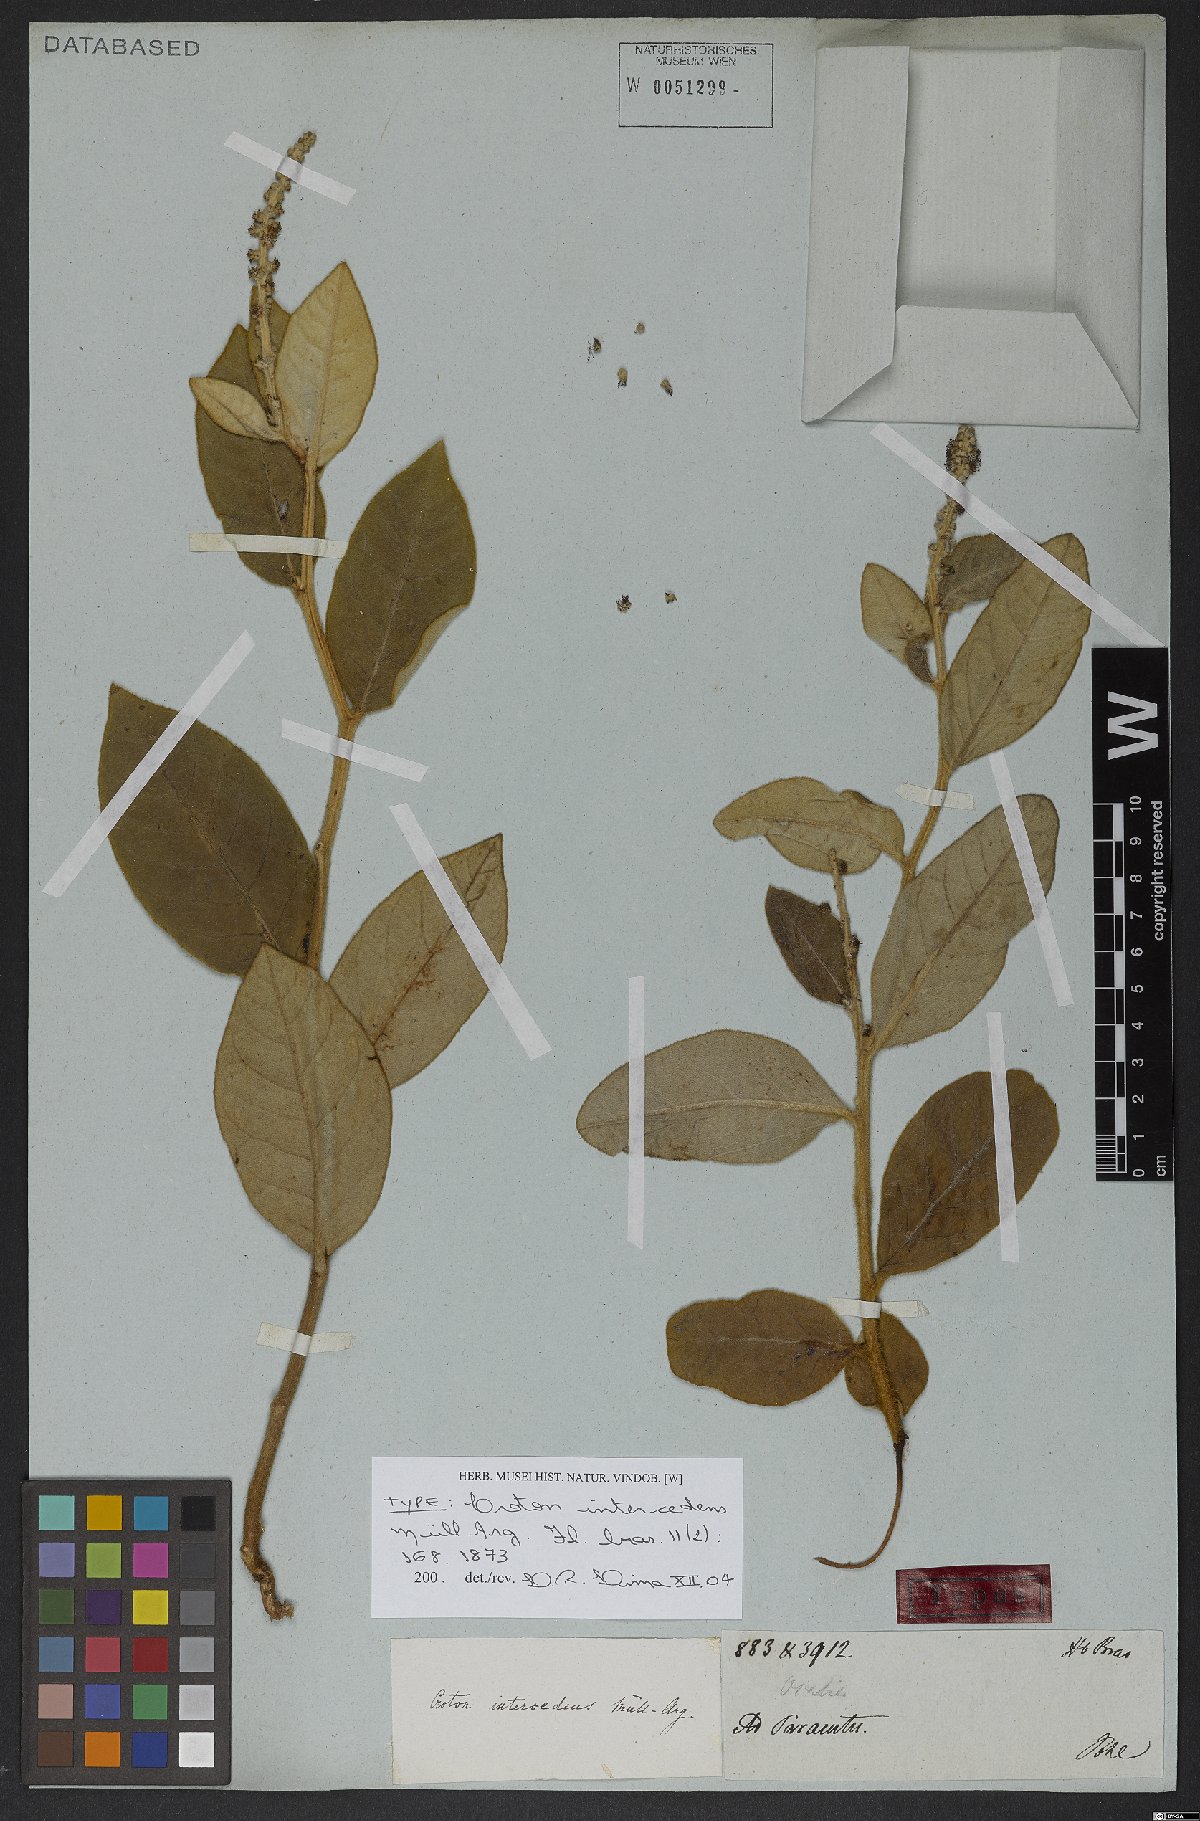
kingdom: Plantae
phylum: Tracheophyta
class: Magnoliopsida
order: Malpighiales
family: Euphorbiaceae
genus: Croton
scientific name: Croton intercedens
